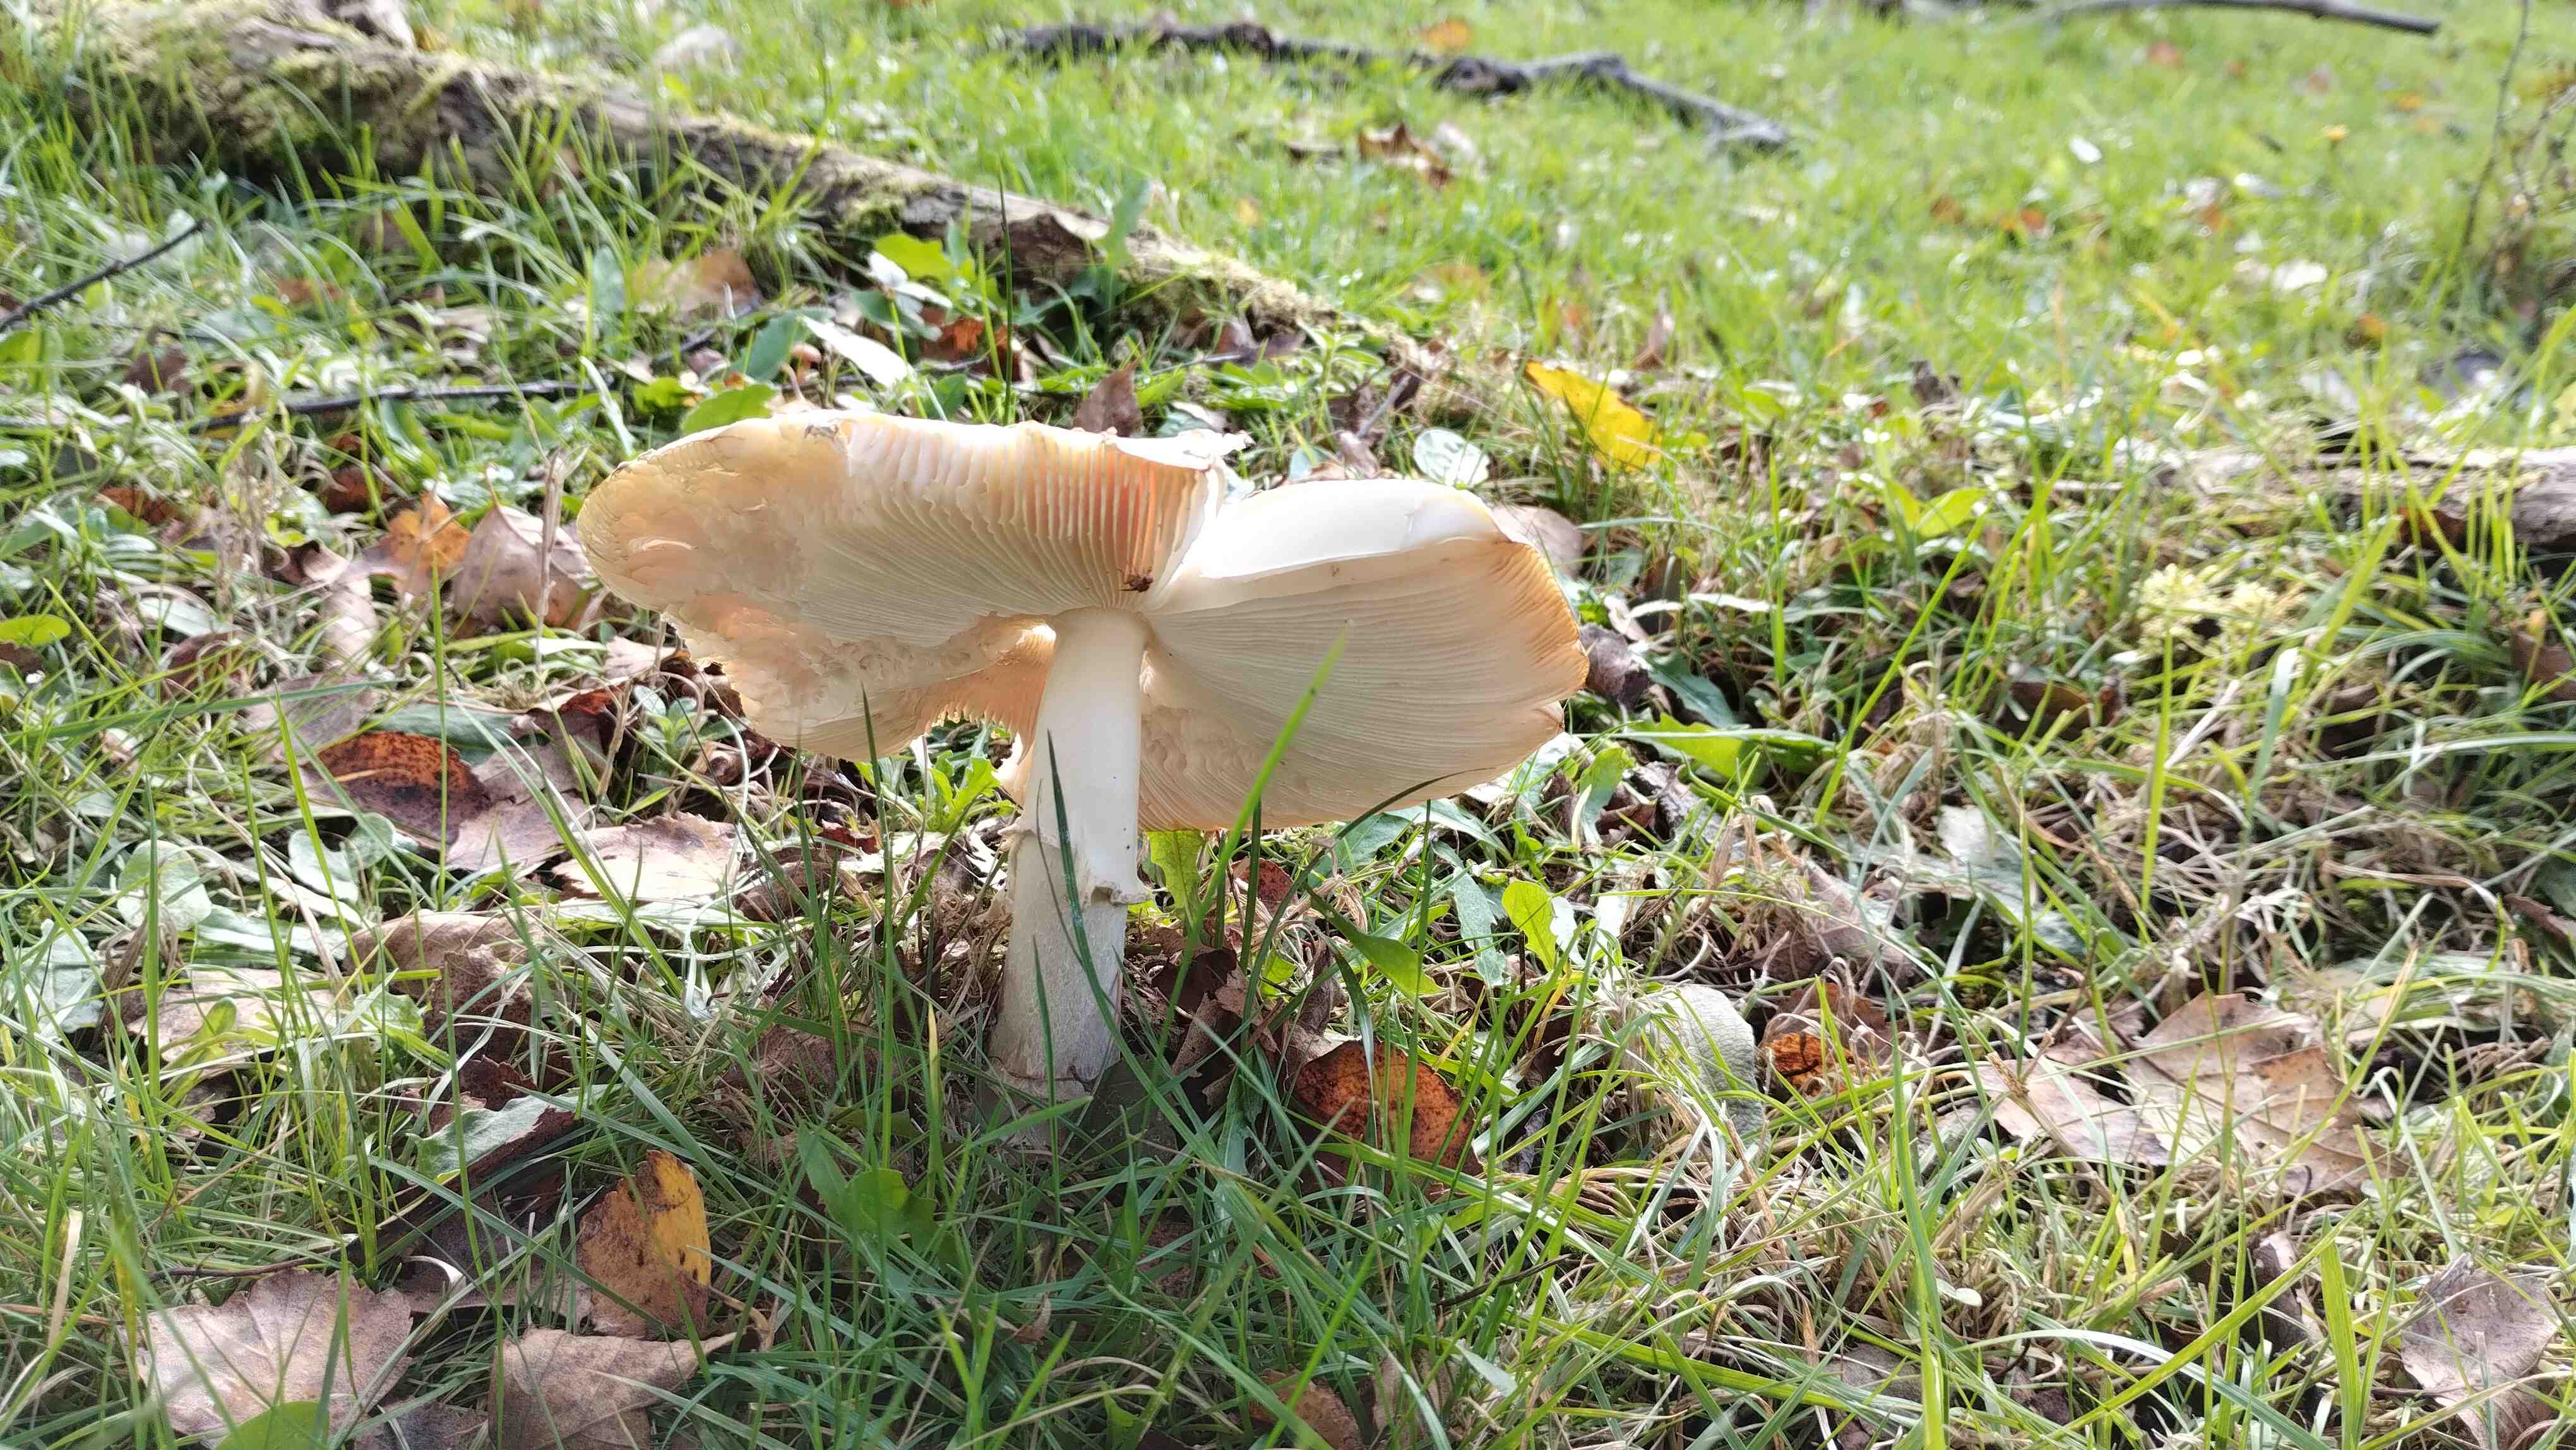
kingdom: Fungi
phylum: Basidiomycota
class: Agaricomycetes
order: Agaricales
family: Amanitaceae
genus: Amanita
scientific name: Amanita muscaria
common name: rød fluesvamp
